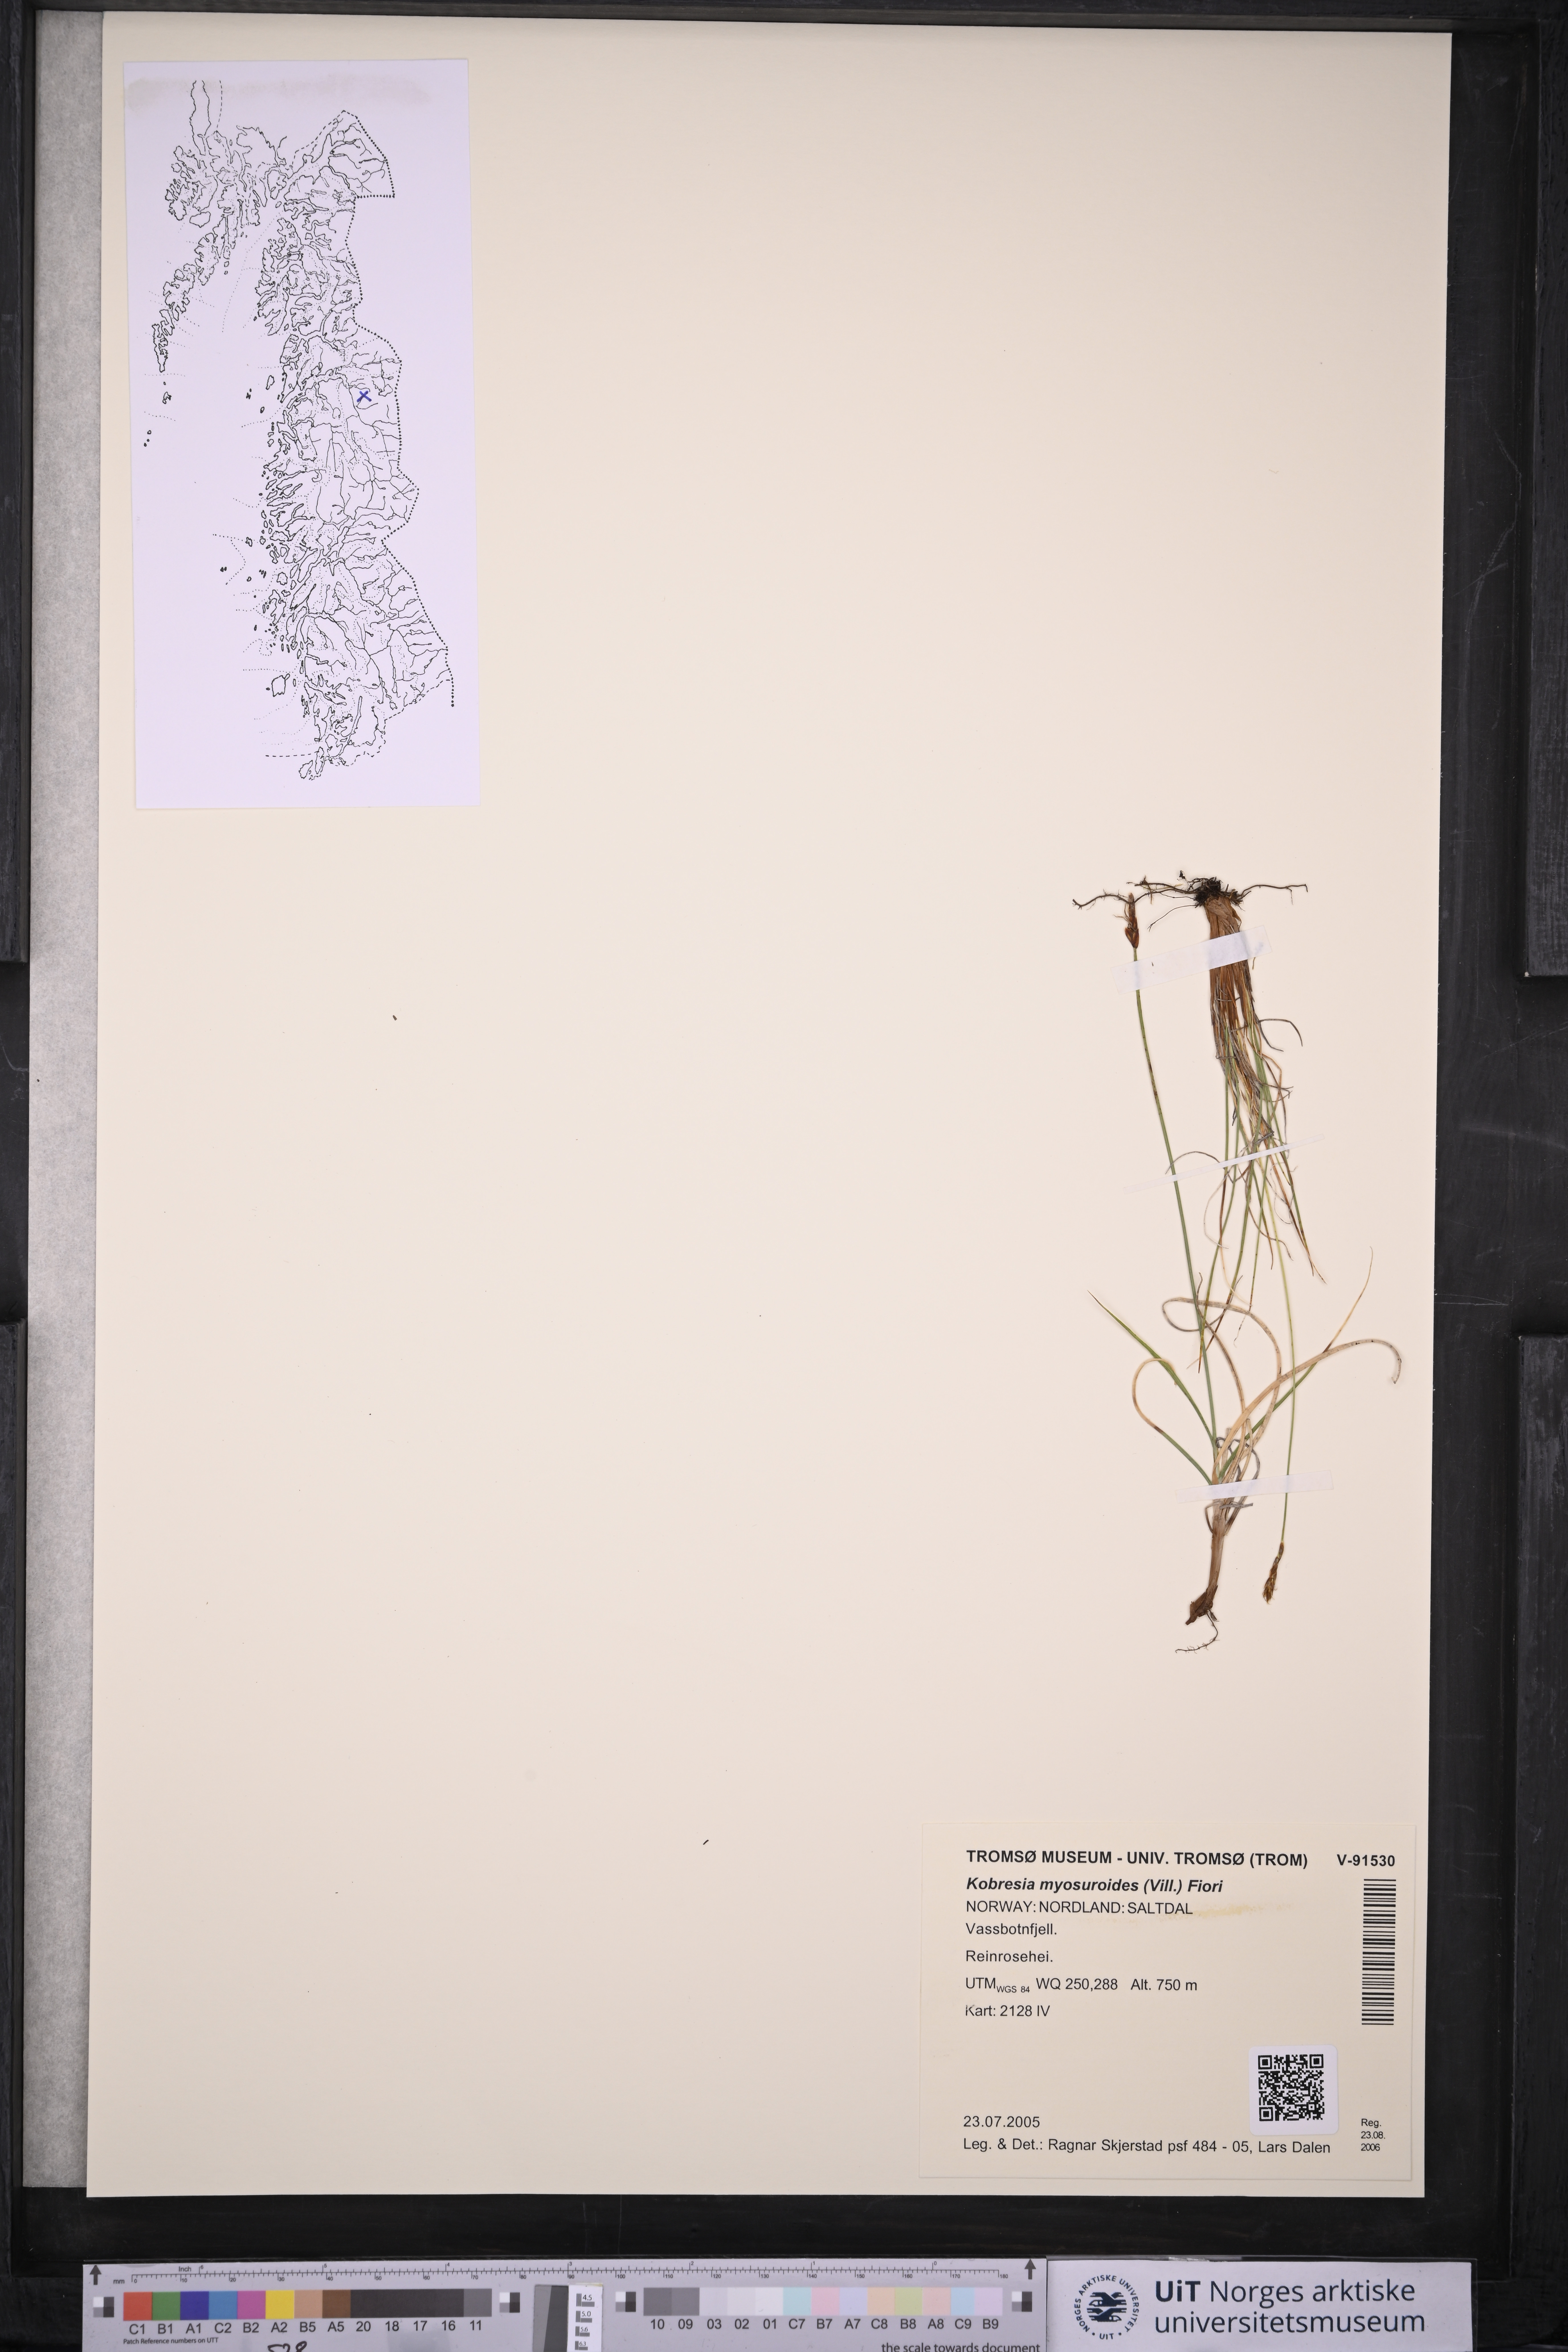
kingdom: Plantae
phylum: Tracheophyta
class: Liliopsida
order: Poales
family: Cyperaceae
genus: Carex
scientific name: Carex myosuroides
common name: Bellard's bog sedge
